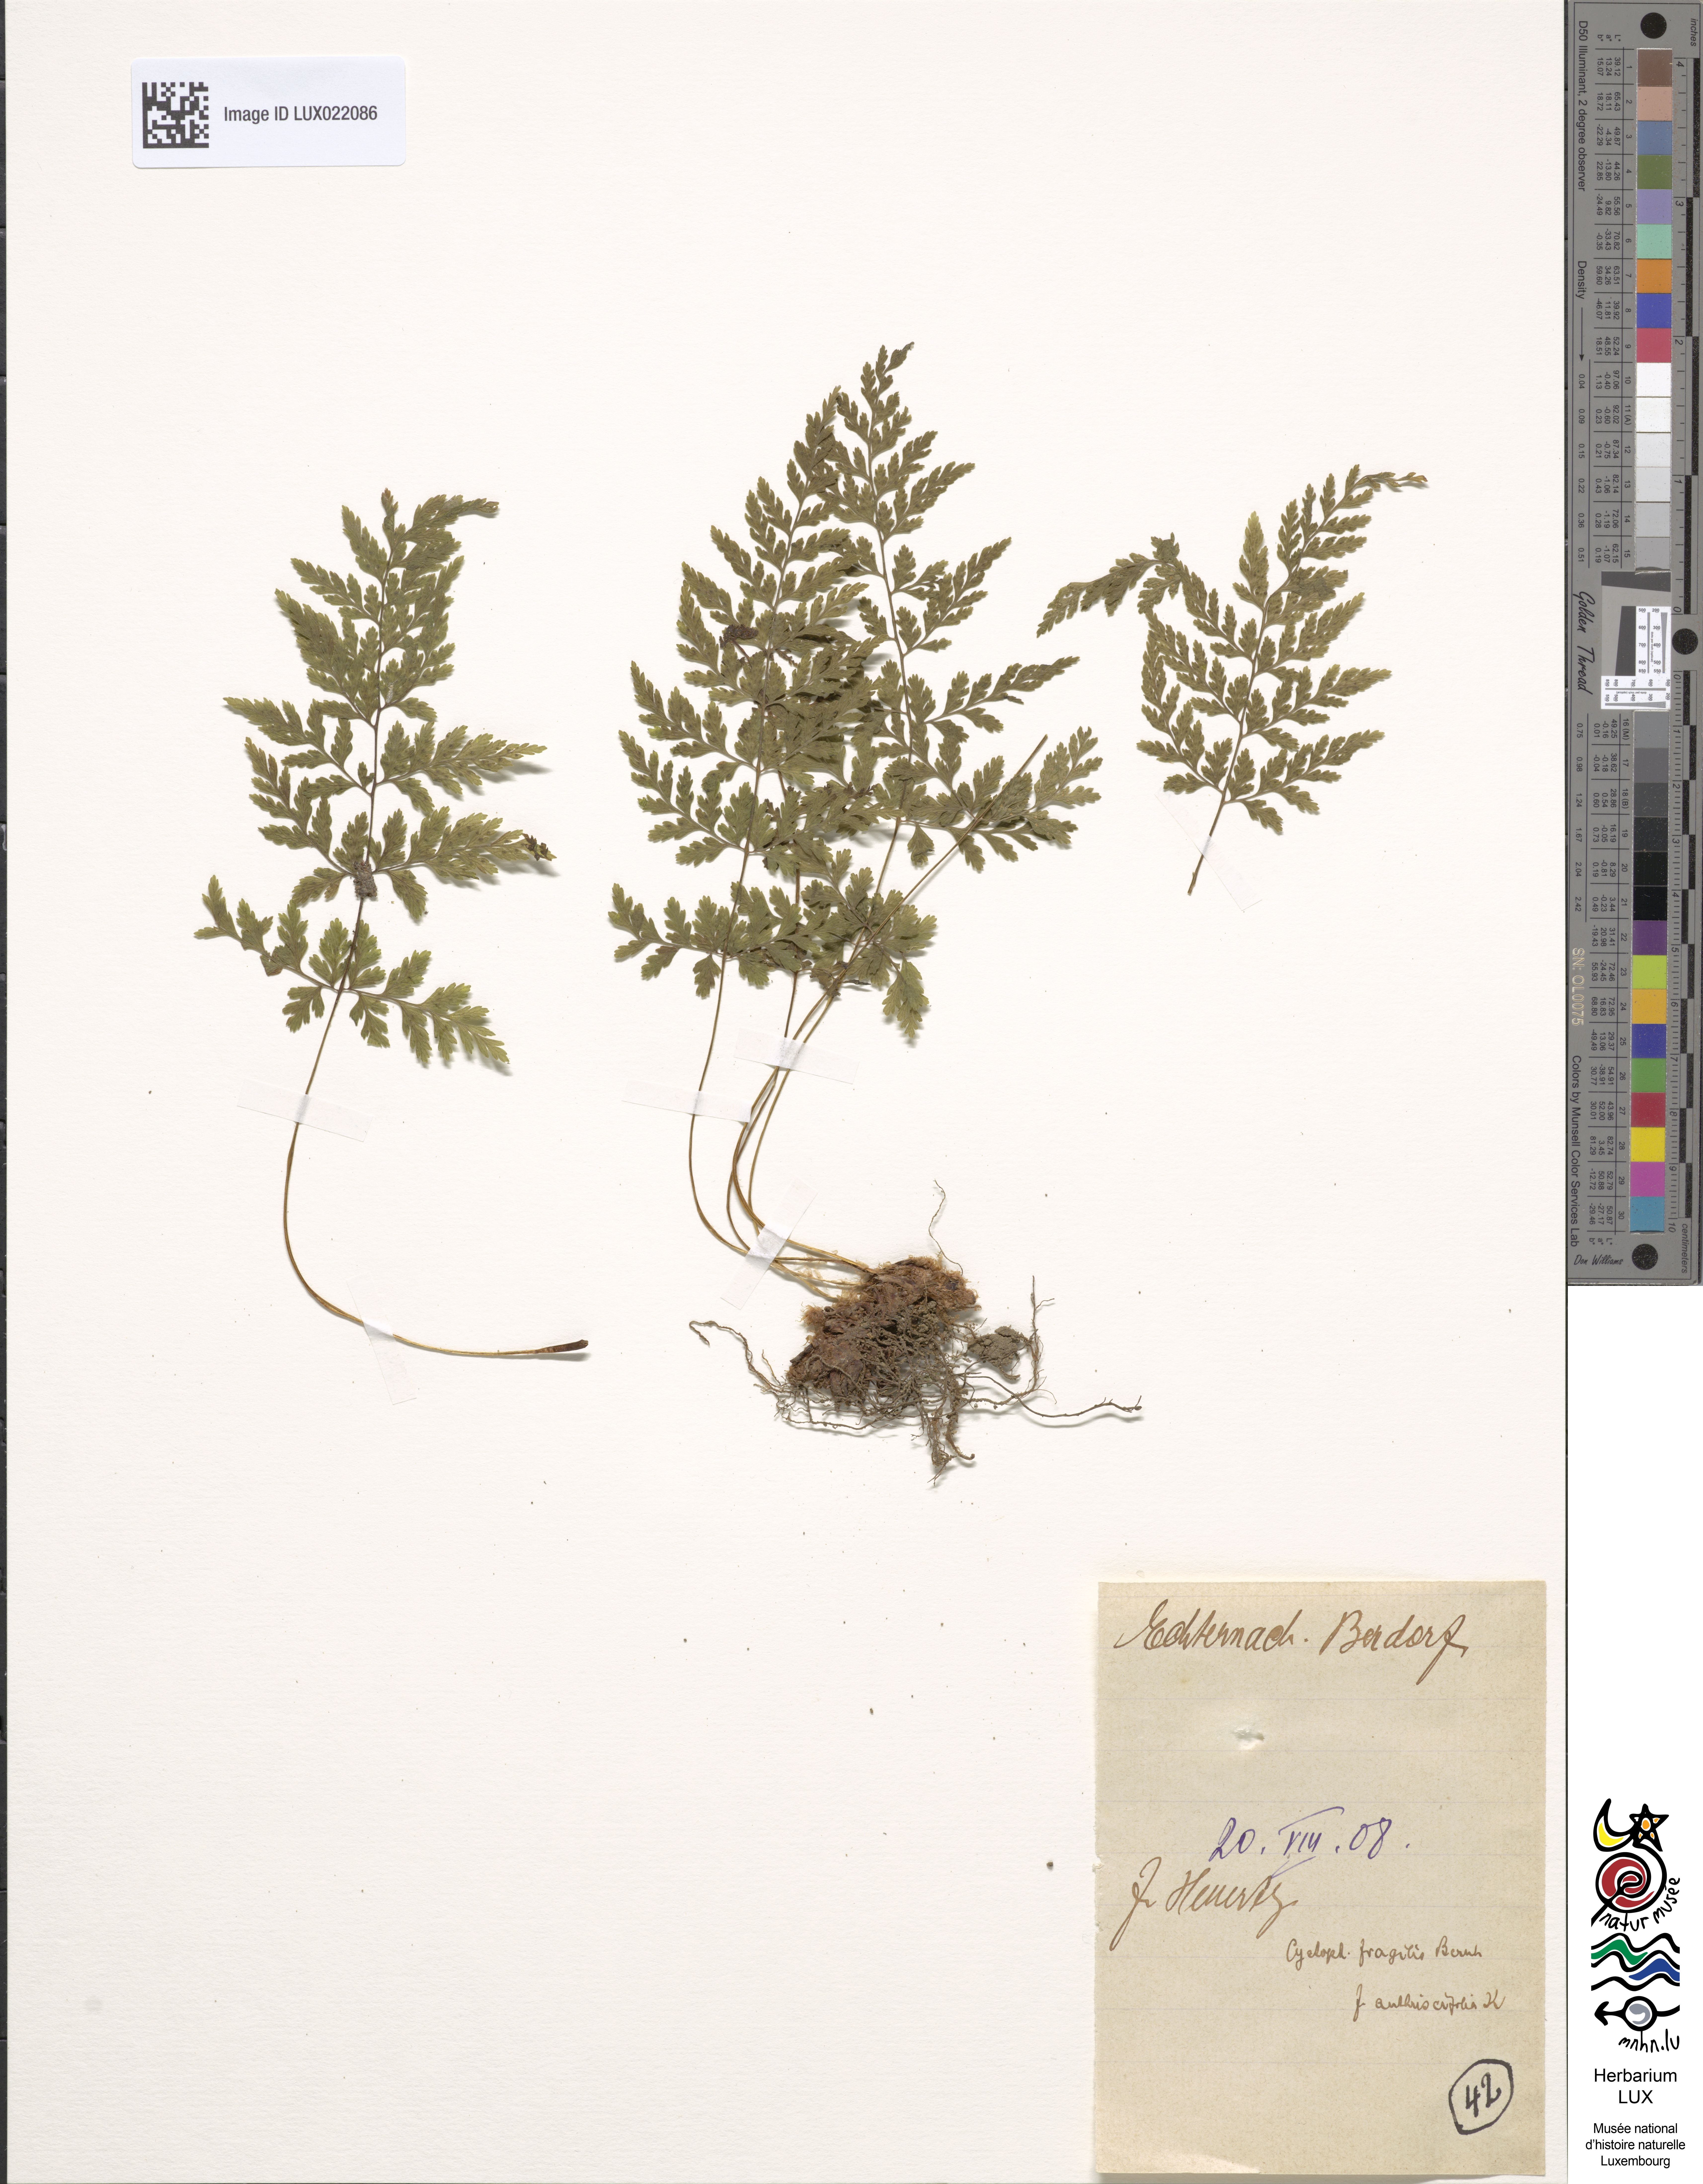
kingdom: Plantae
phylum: Tracheophyta
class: Polypodiopsida
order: Polypodiales
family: Cystopteridaceae
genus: Cystopteris
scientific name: Cystopteris fragilis
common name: Brittle bladder fern
